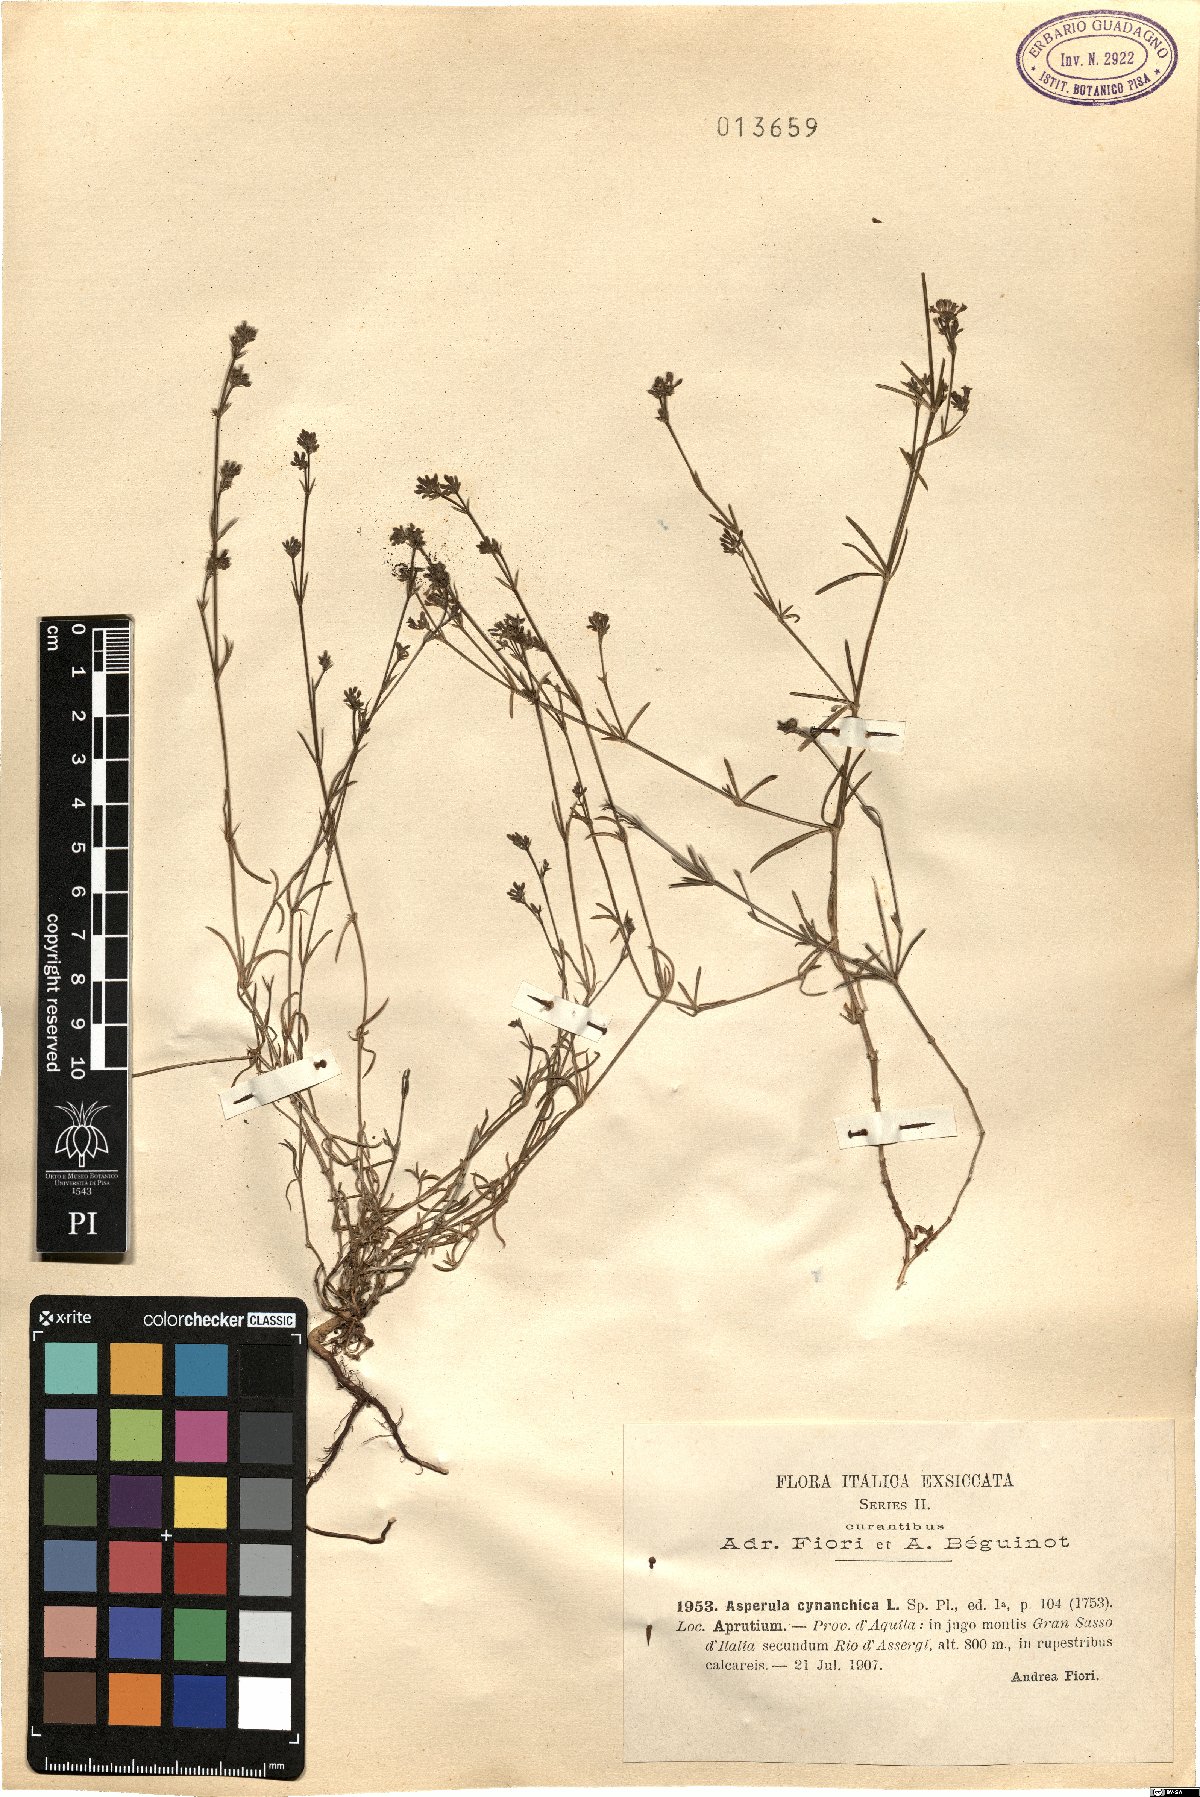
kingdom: Plantae
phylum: Tracheophyta
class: Magnoliopsida
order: Gentianales
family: Rubiaceae
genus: Cynanchica
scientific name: Cynanchica pyrenaica
